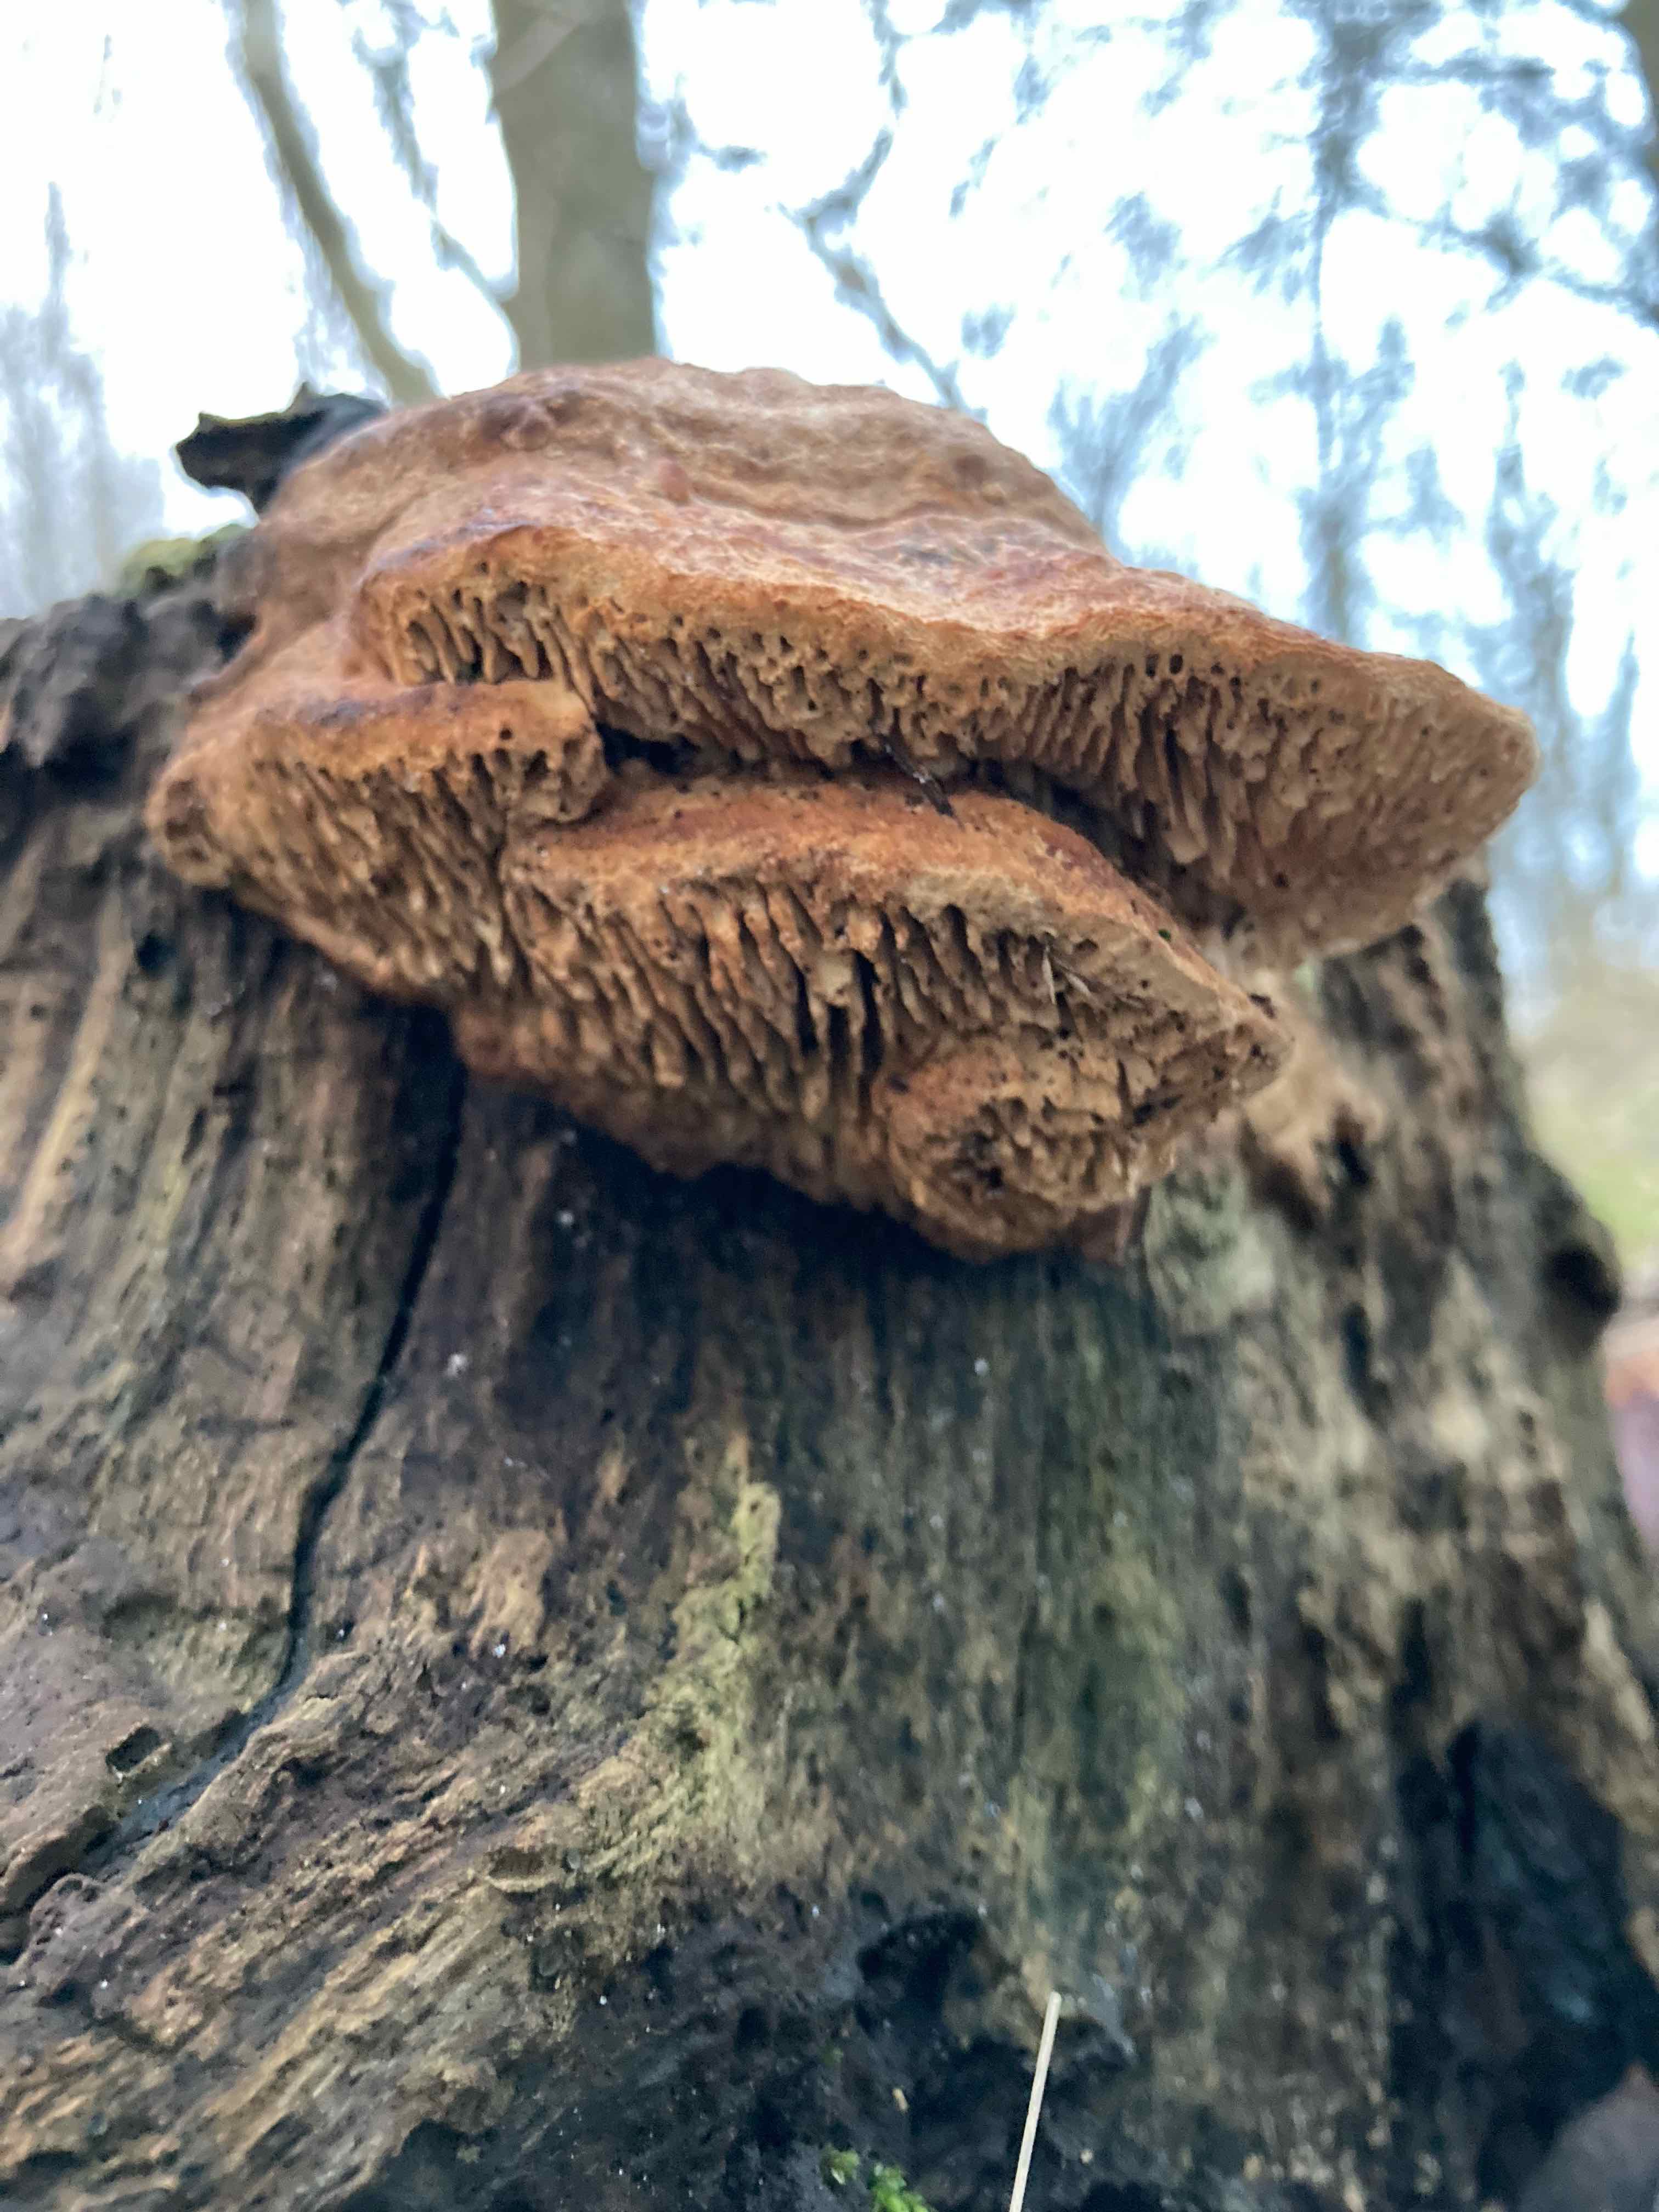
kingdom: Fungi
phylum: Basidiomycota
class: Agaricomycetes
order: Polyporales
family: Fomitopsidaceae
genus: Daedalea
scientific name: Daedalea quercina
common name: ege-labyrintsvamp
